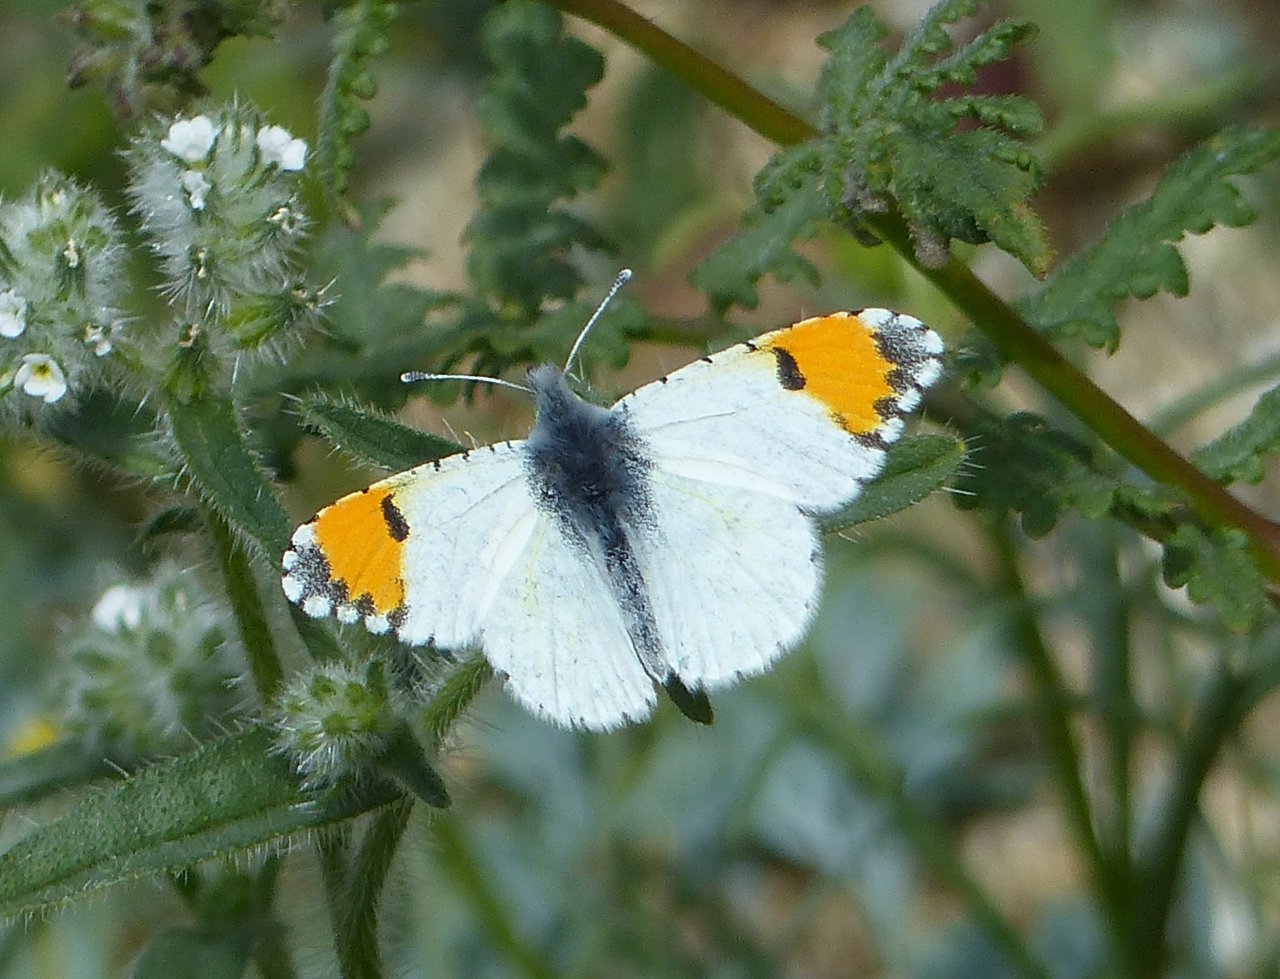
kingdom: Animalia
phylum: Arthropoda
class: Insecta
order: Lepidoptera
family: Pieridae
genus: Anthocharis
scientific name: Anthocharis cethura
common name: Desert Orangetip
